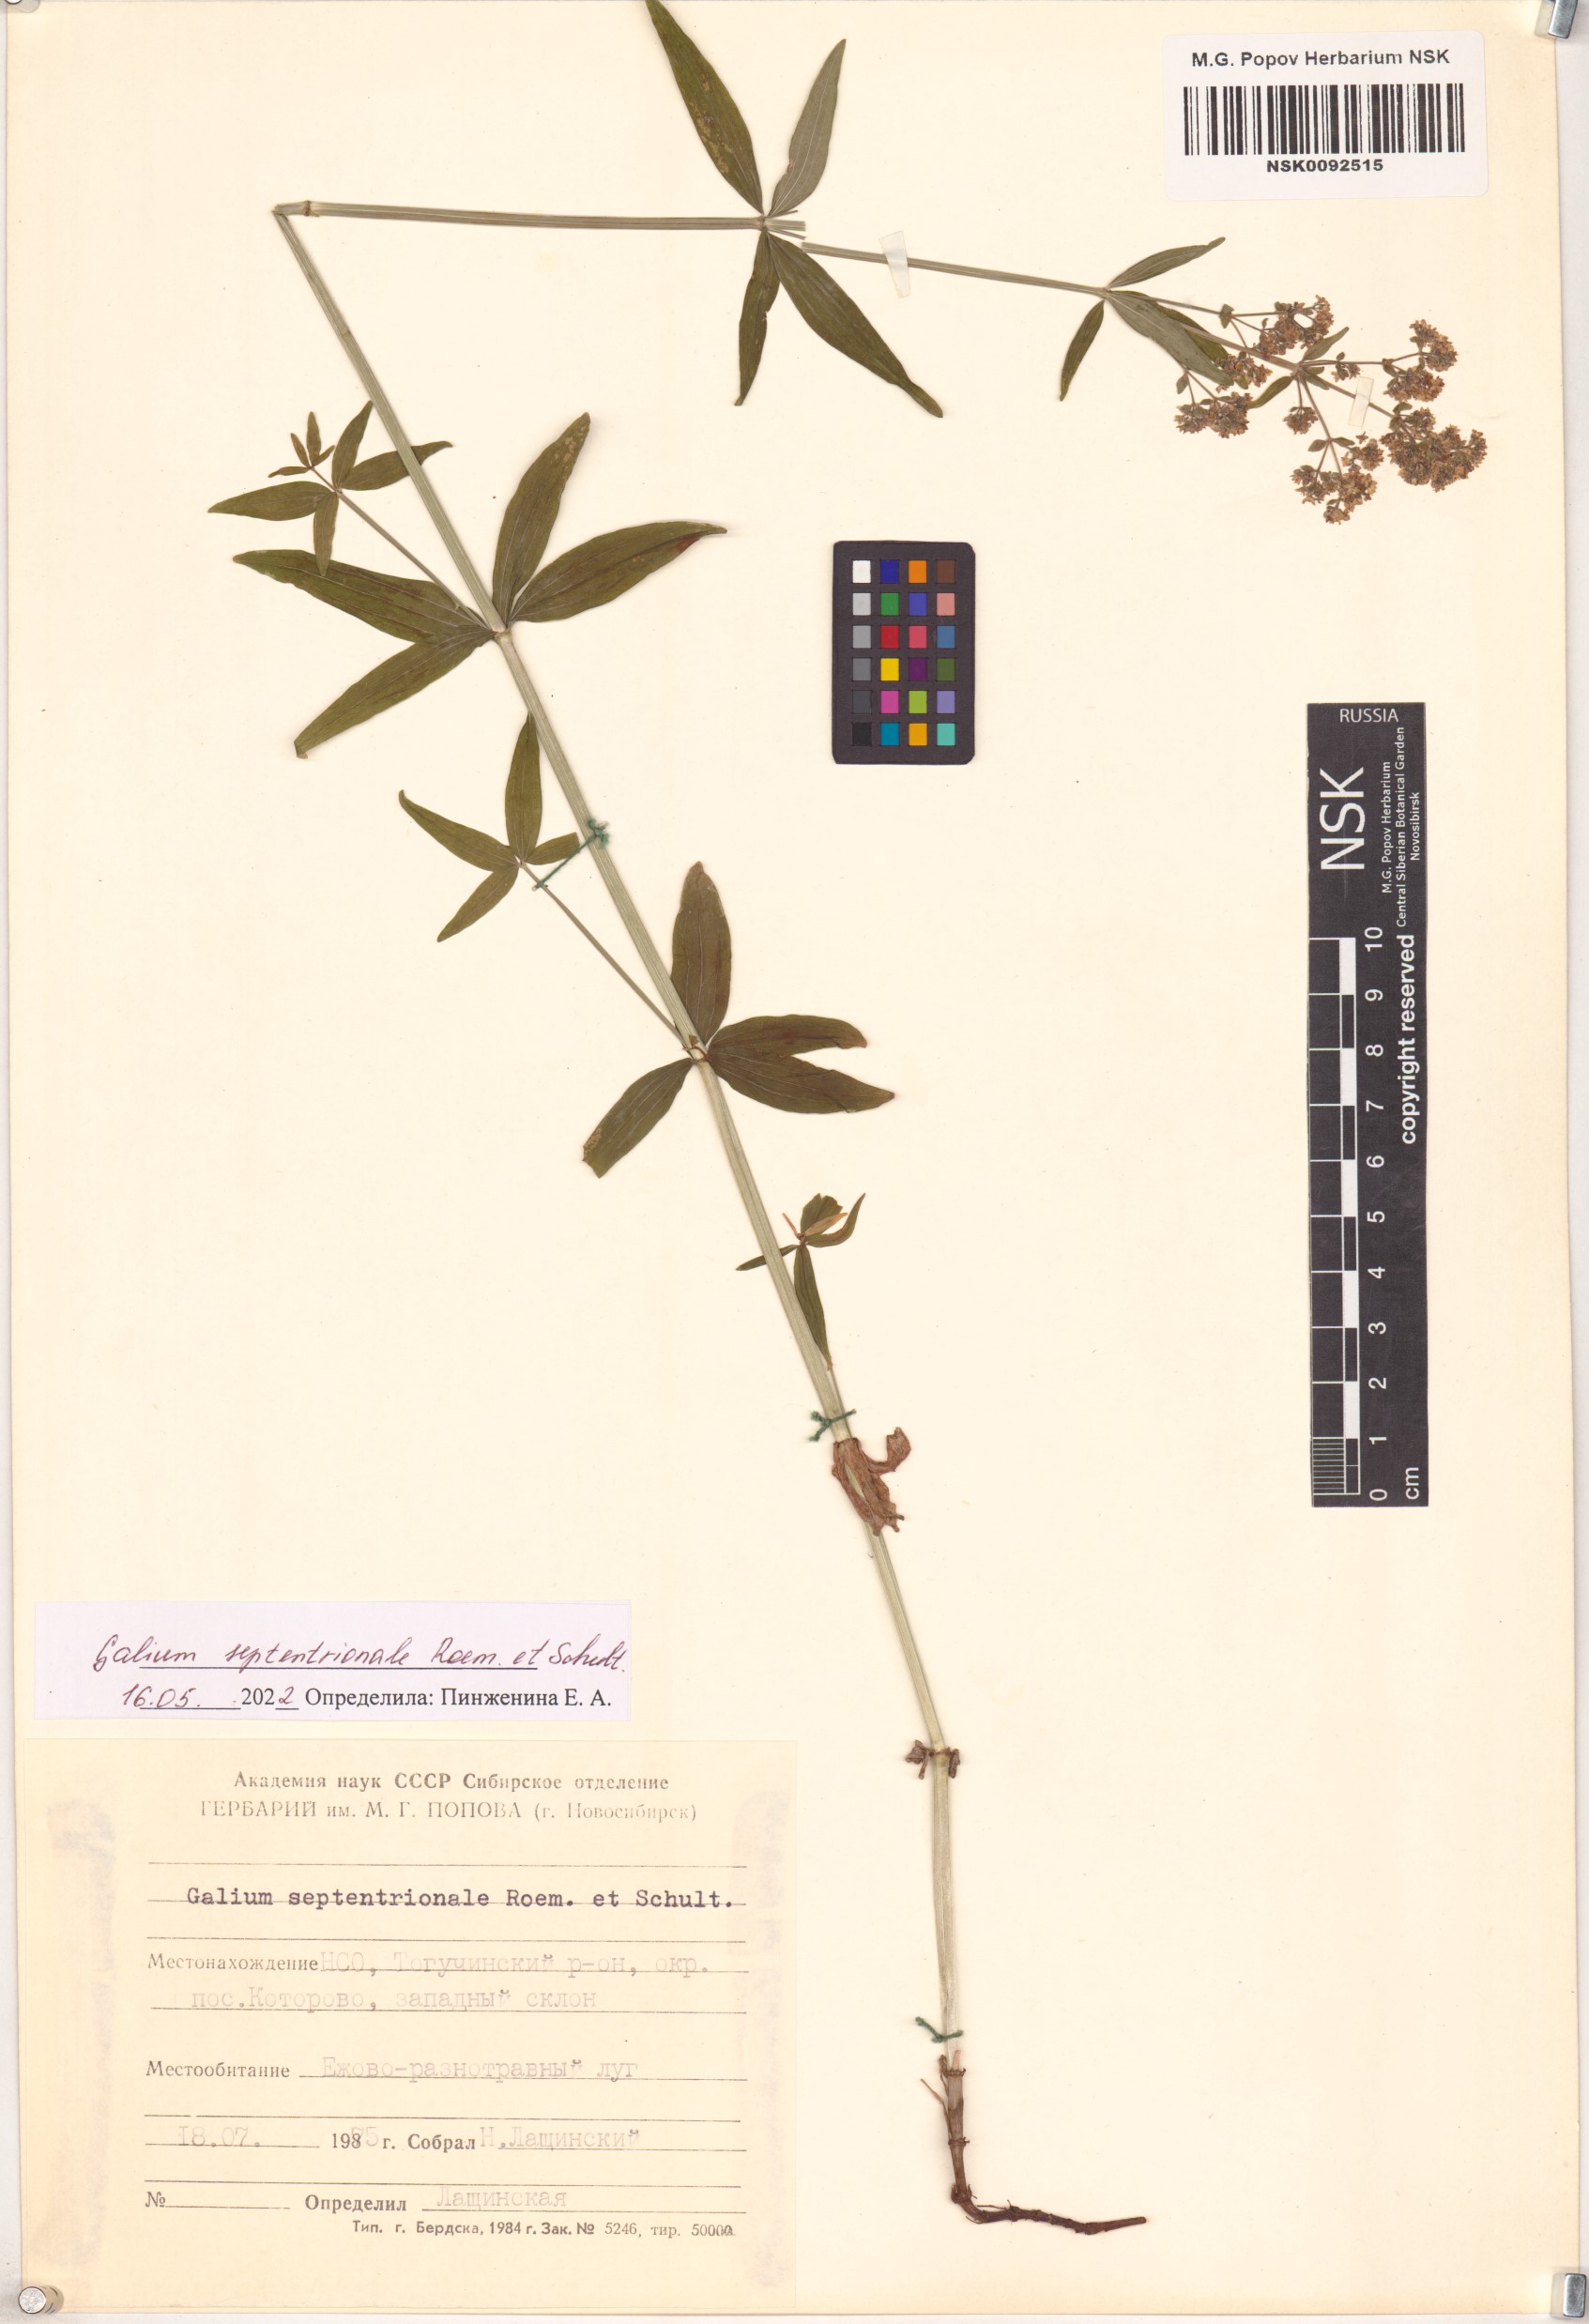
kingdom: Plantae
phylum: Tracheophyta
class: Magnoliopsida
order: Gentianales
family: Rubiaceae
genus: Galium
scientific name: Galium boreale
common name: Northern bedstraw
